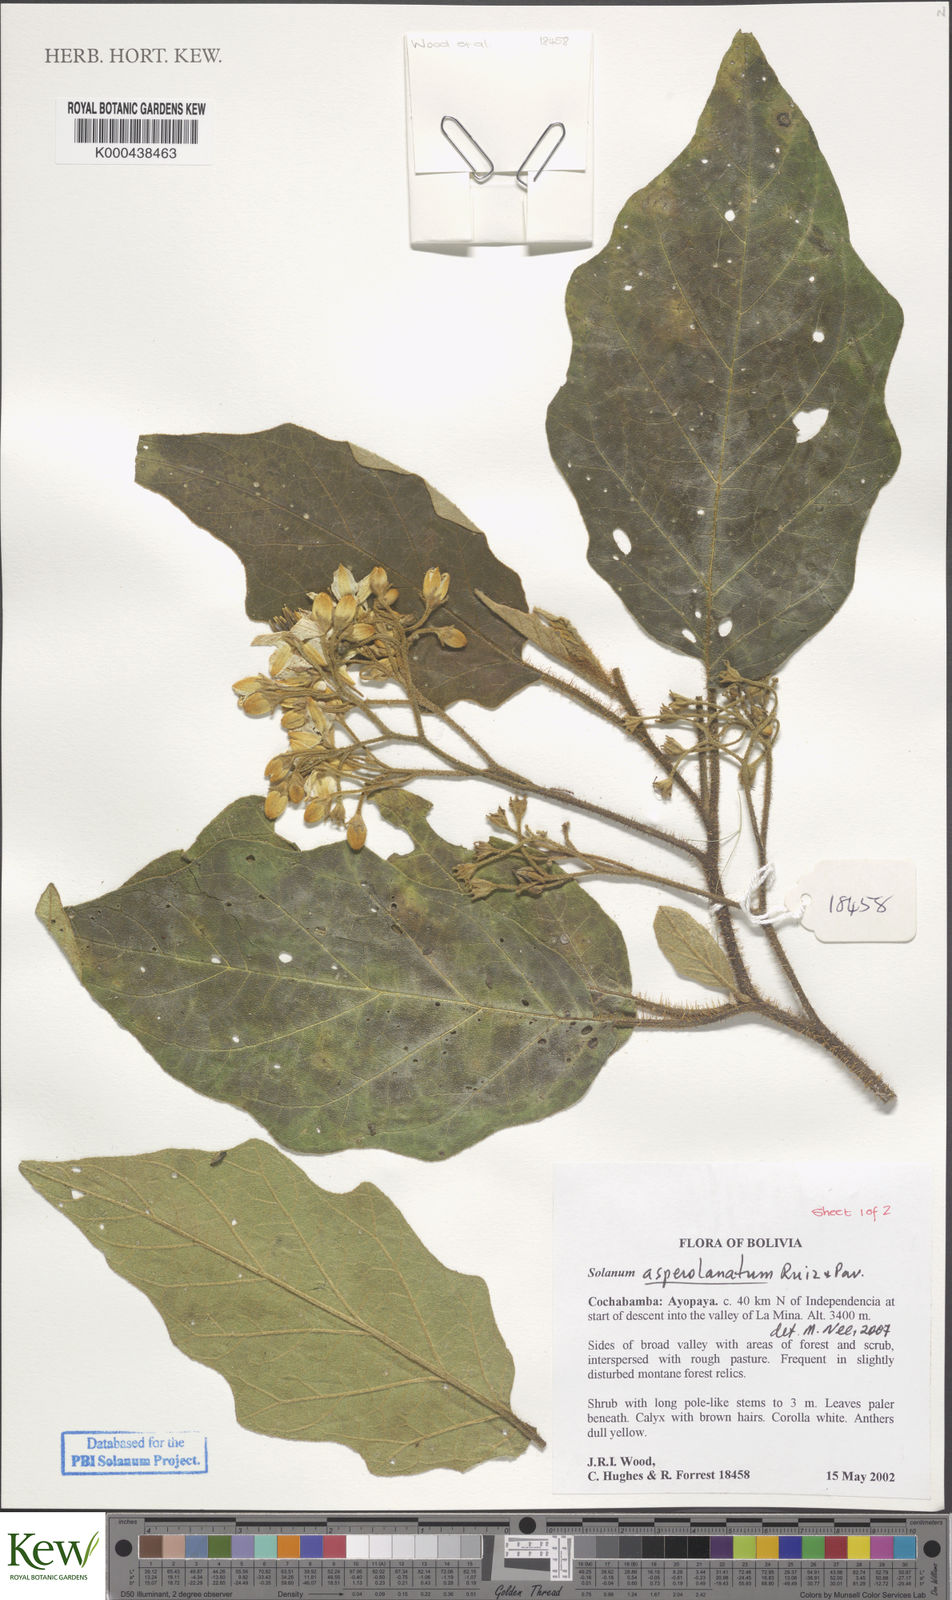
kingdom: Plantae
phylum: Tracheophyta
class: Magnoliopsida
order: Solanales
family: Solanaceae
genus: Solanum
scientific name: Solanum asperolanatum
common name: Devil's-fig
